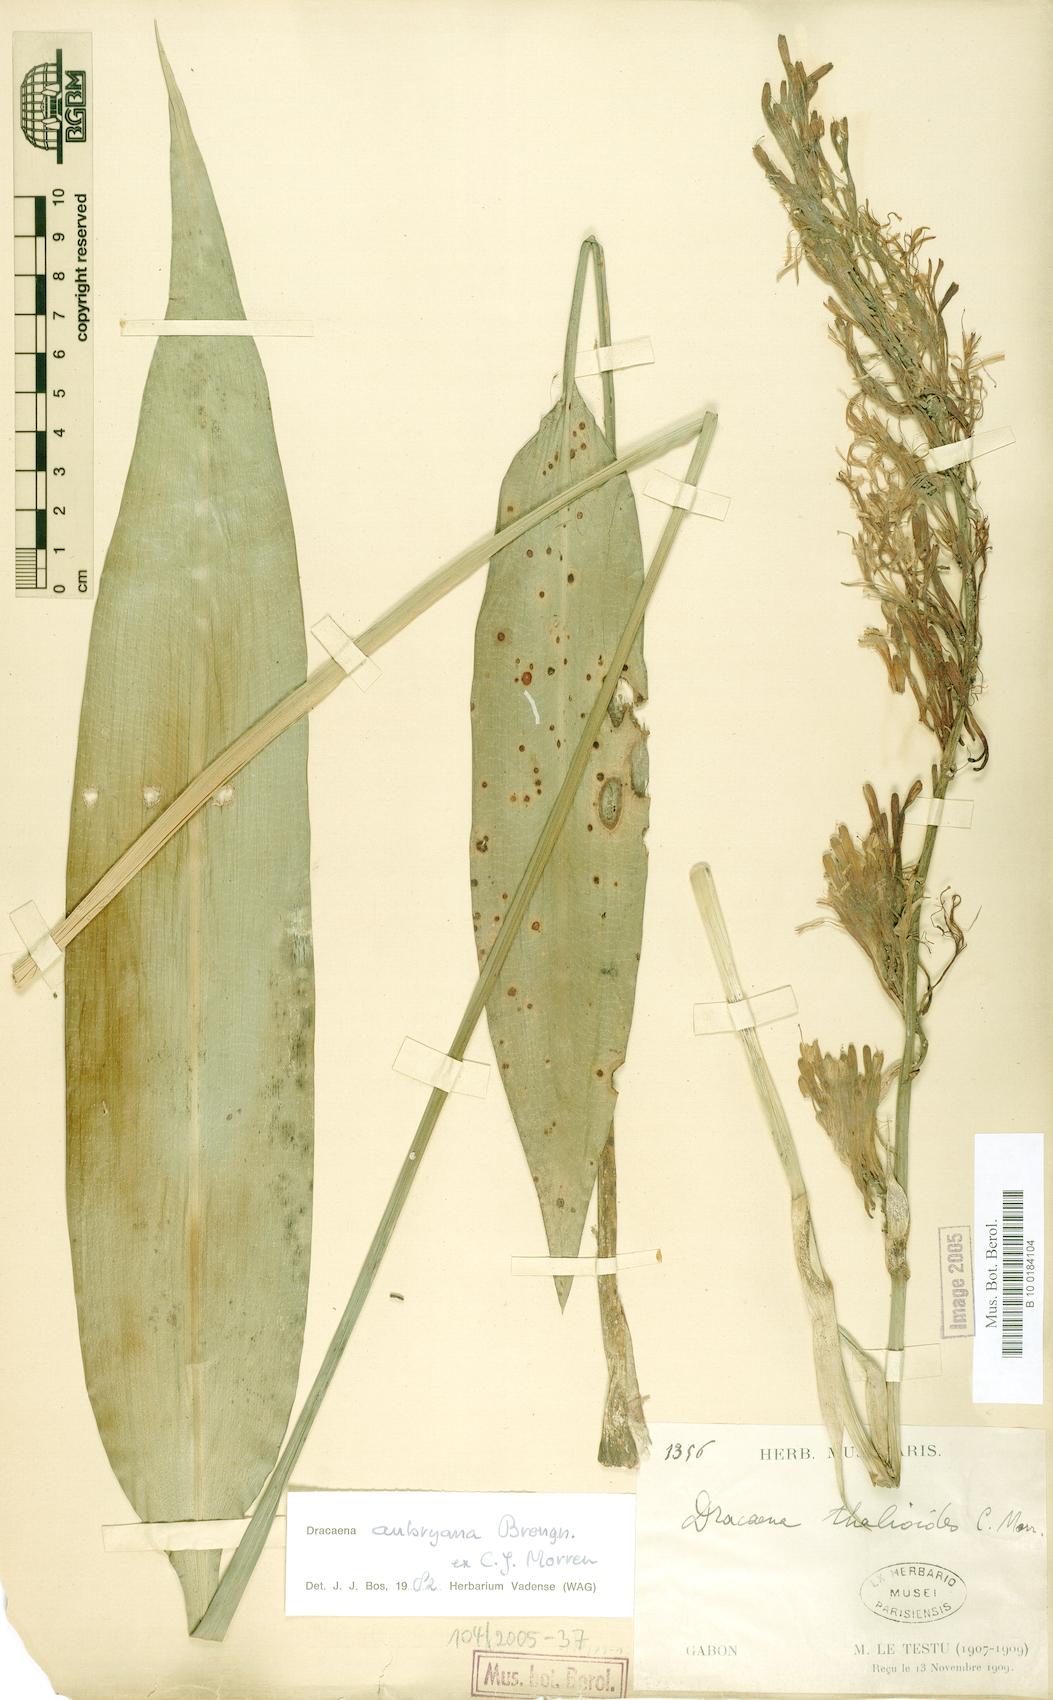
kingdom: Plantae
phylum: Tracheophyta
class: Liliopsida
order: Asparagales
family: Asparagaceae
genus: Dracaena
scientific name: Dracaena aubryana
